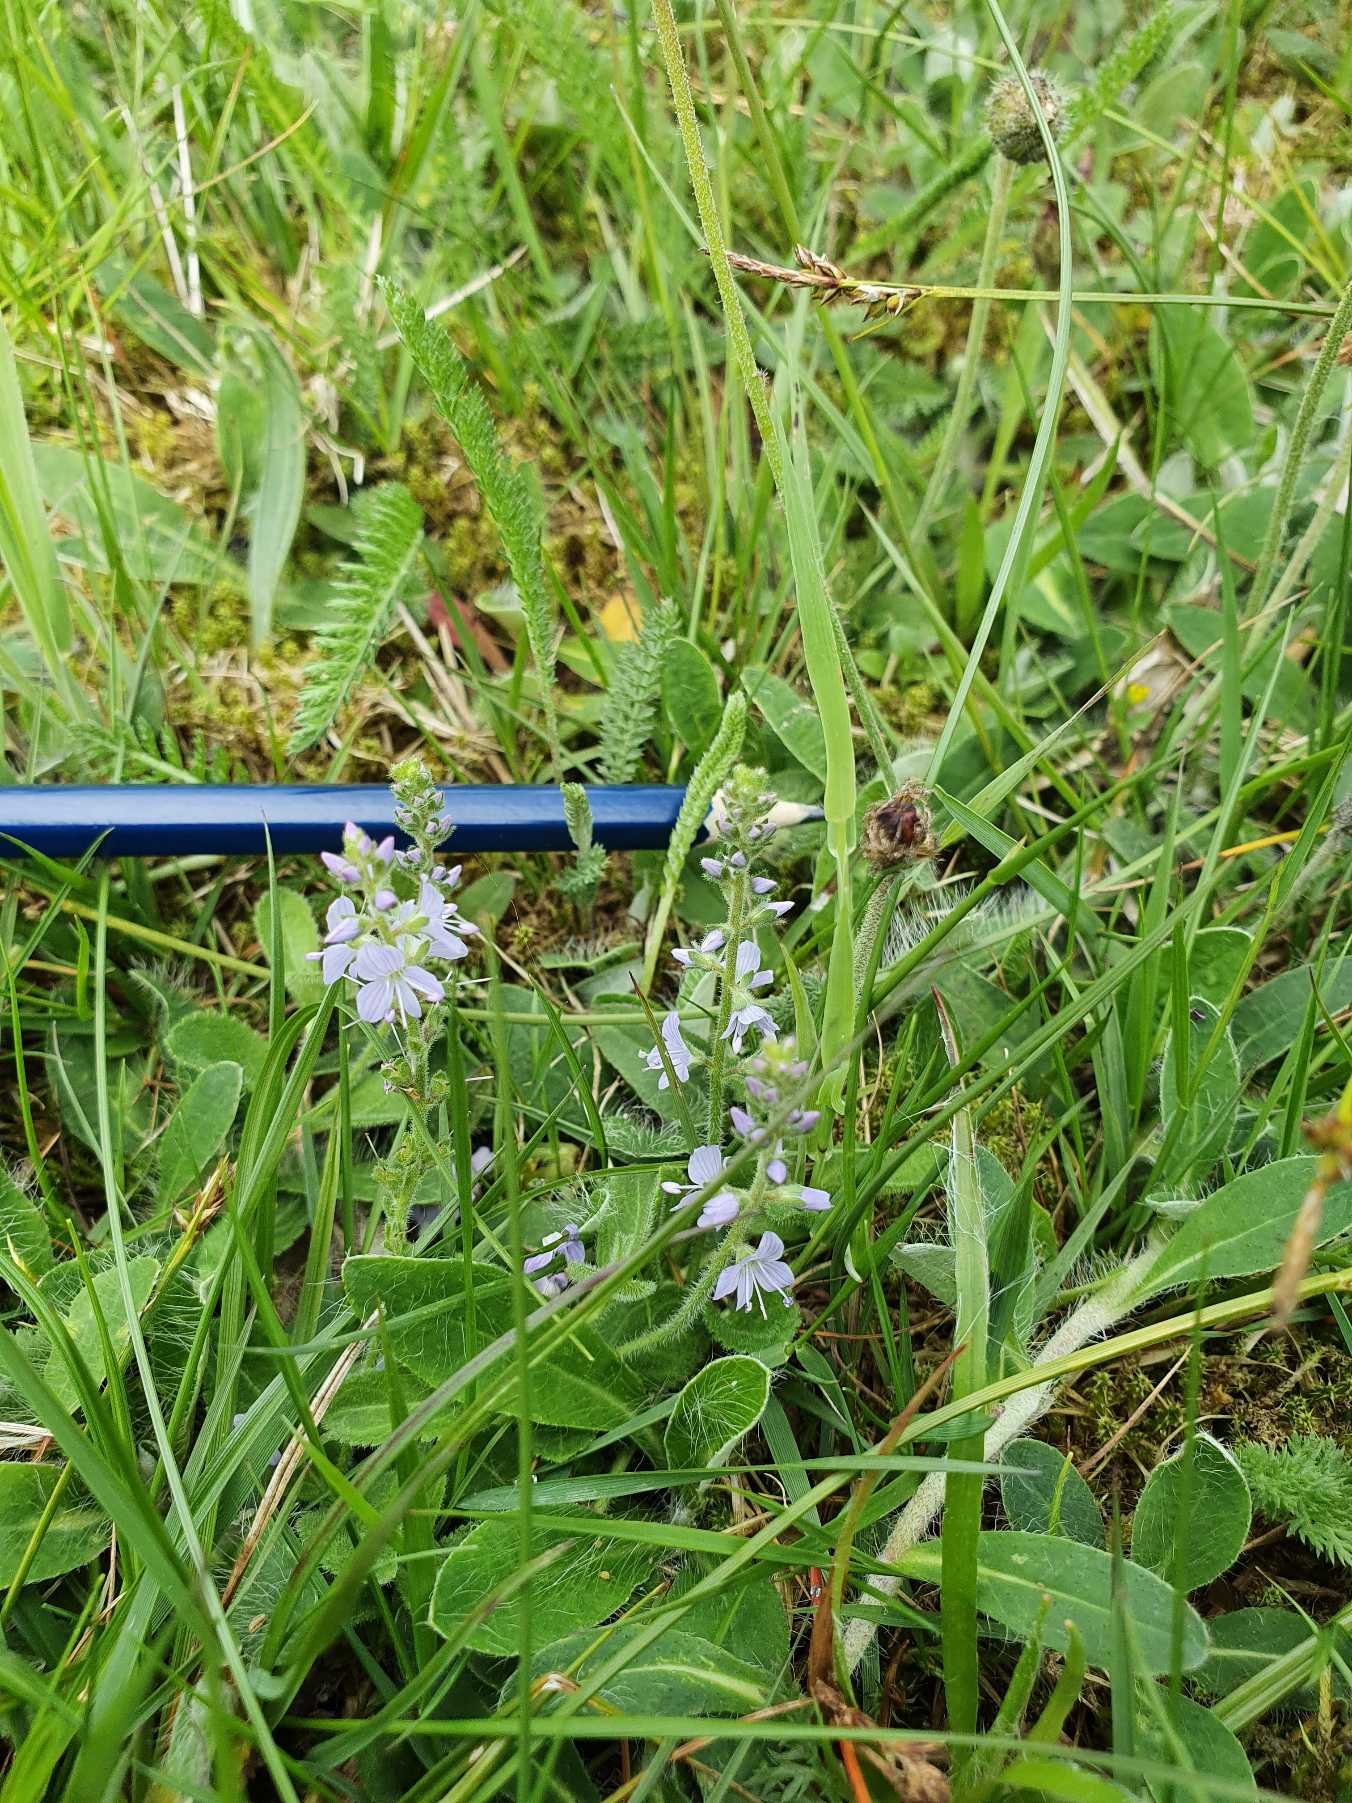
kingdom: Plantae
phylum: Tracheophyta
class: Magnoliopsida
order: Lamiales
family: Plantaginaceae
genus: Veronica
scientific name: Veronica officinalis
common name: Læge-ærenpris
